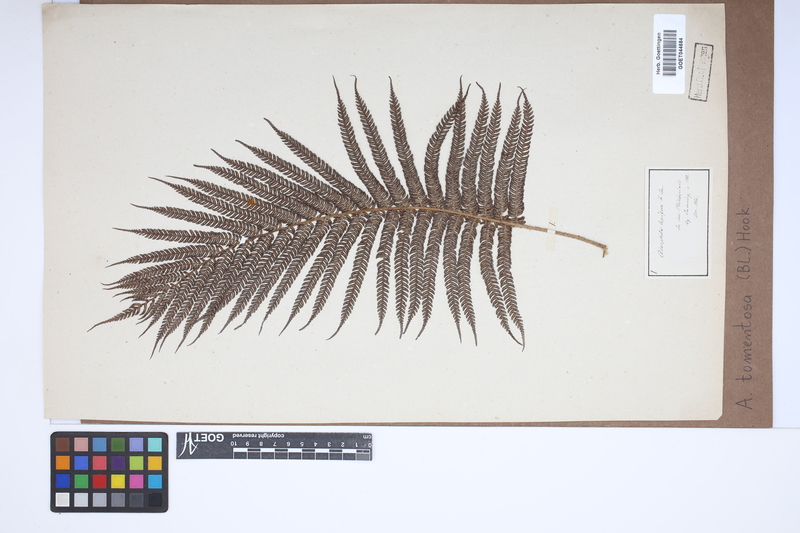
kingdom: Plantae
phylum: Tracheophyta
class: Polypodiopsida
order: Cyatheales
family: Cyatheaceae
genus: Sphaeropteris
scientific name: Sphaeropteris tomentosa
